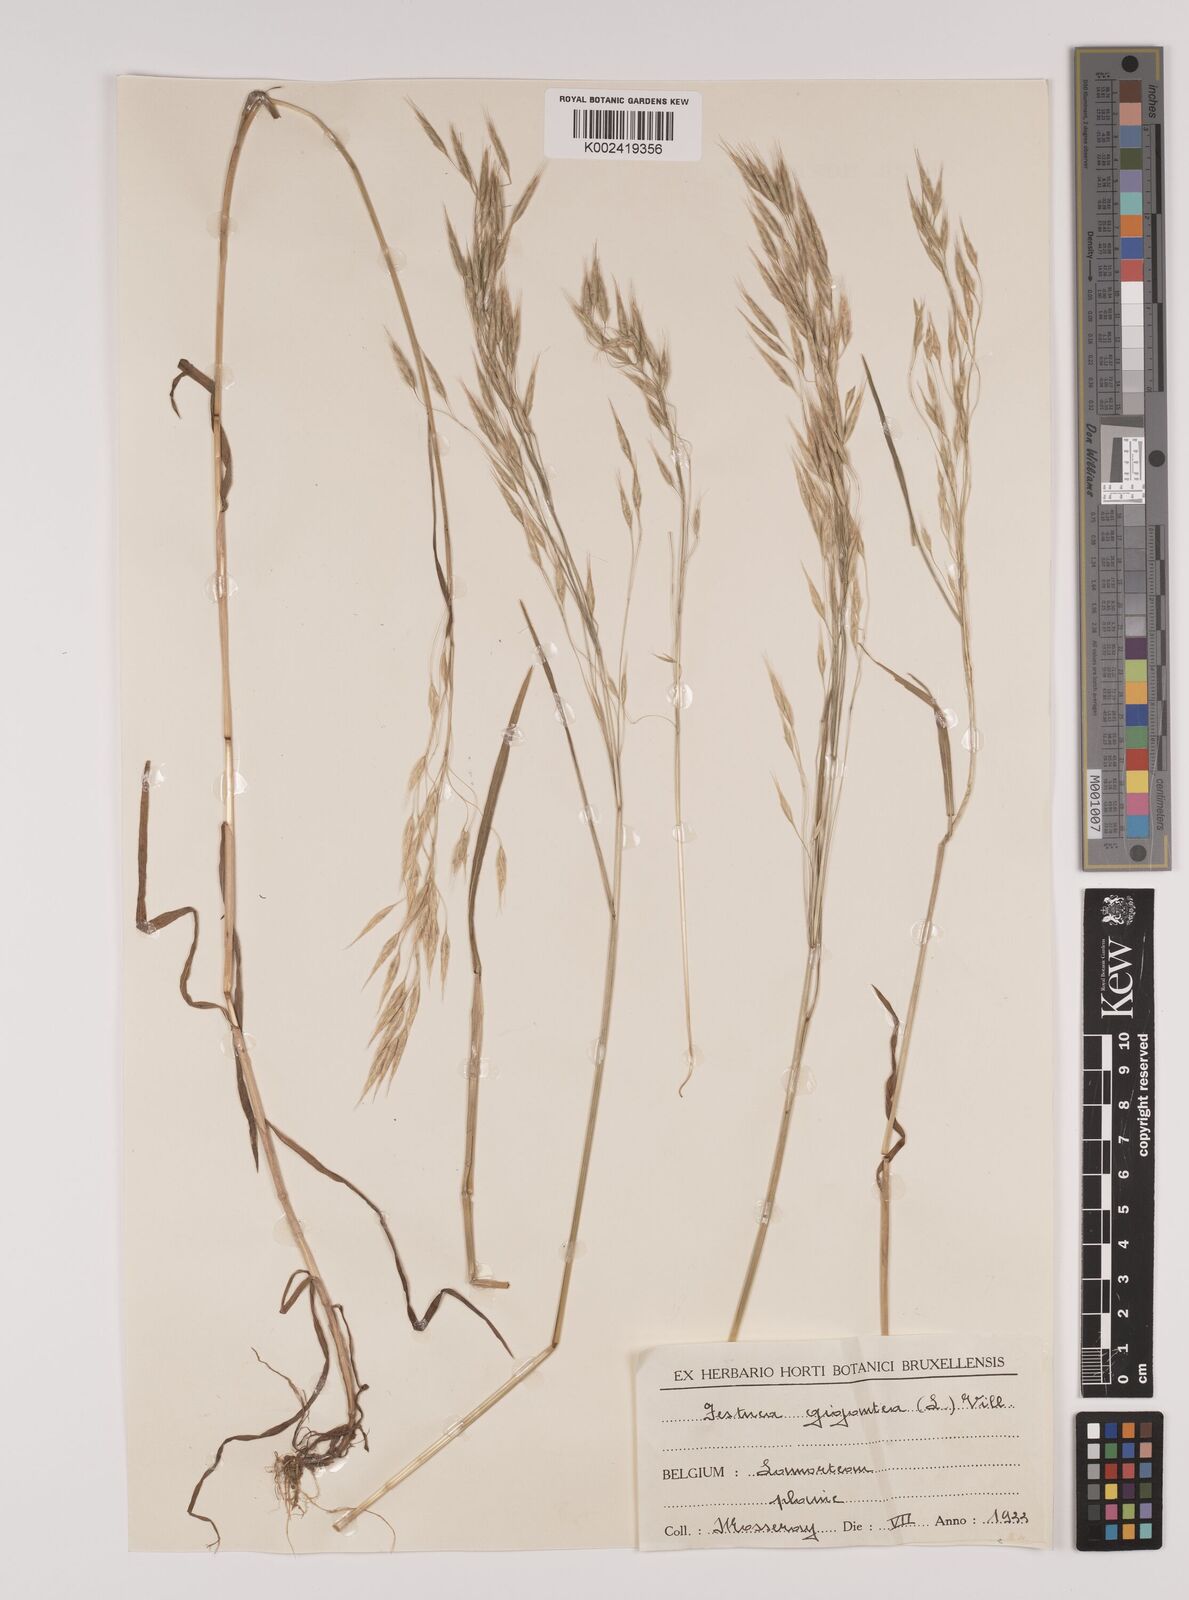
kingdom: Plantae
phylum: Tracheophyta
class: Liliopsida
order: Poales
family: Poaceae
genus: Lolium
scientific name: Lolium giganteum
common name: Giant fescue
